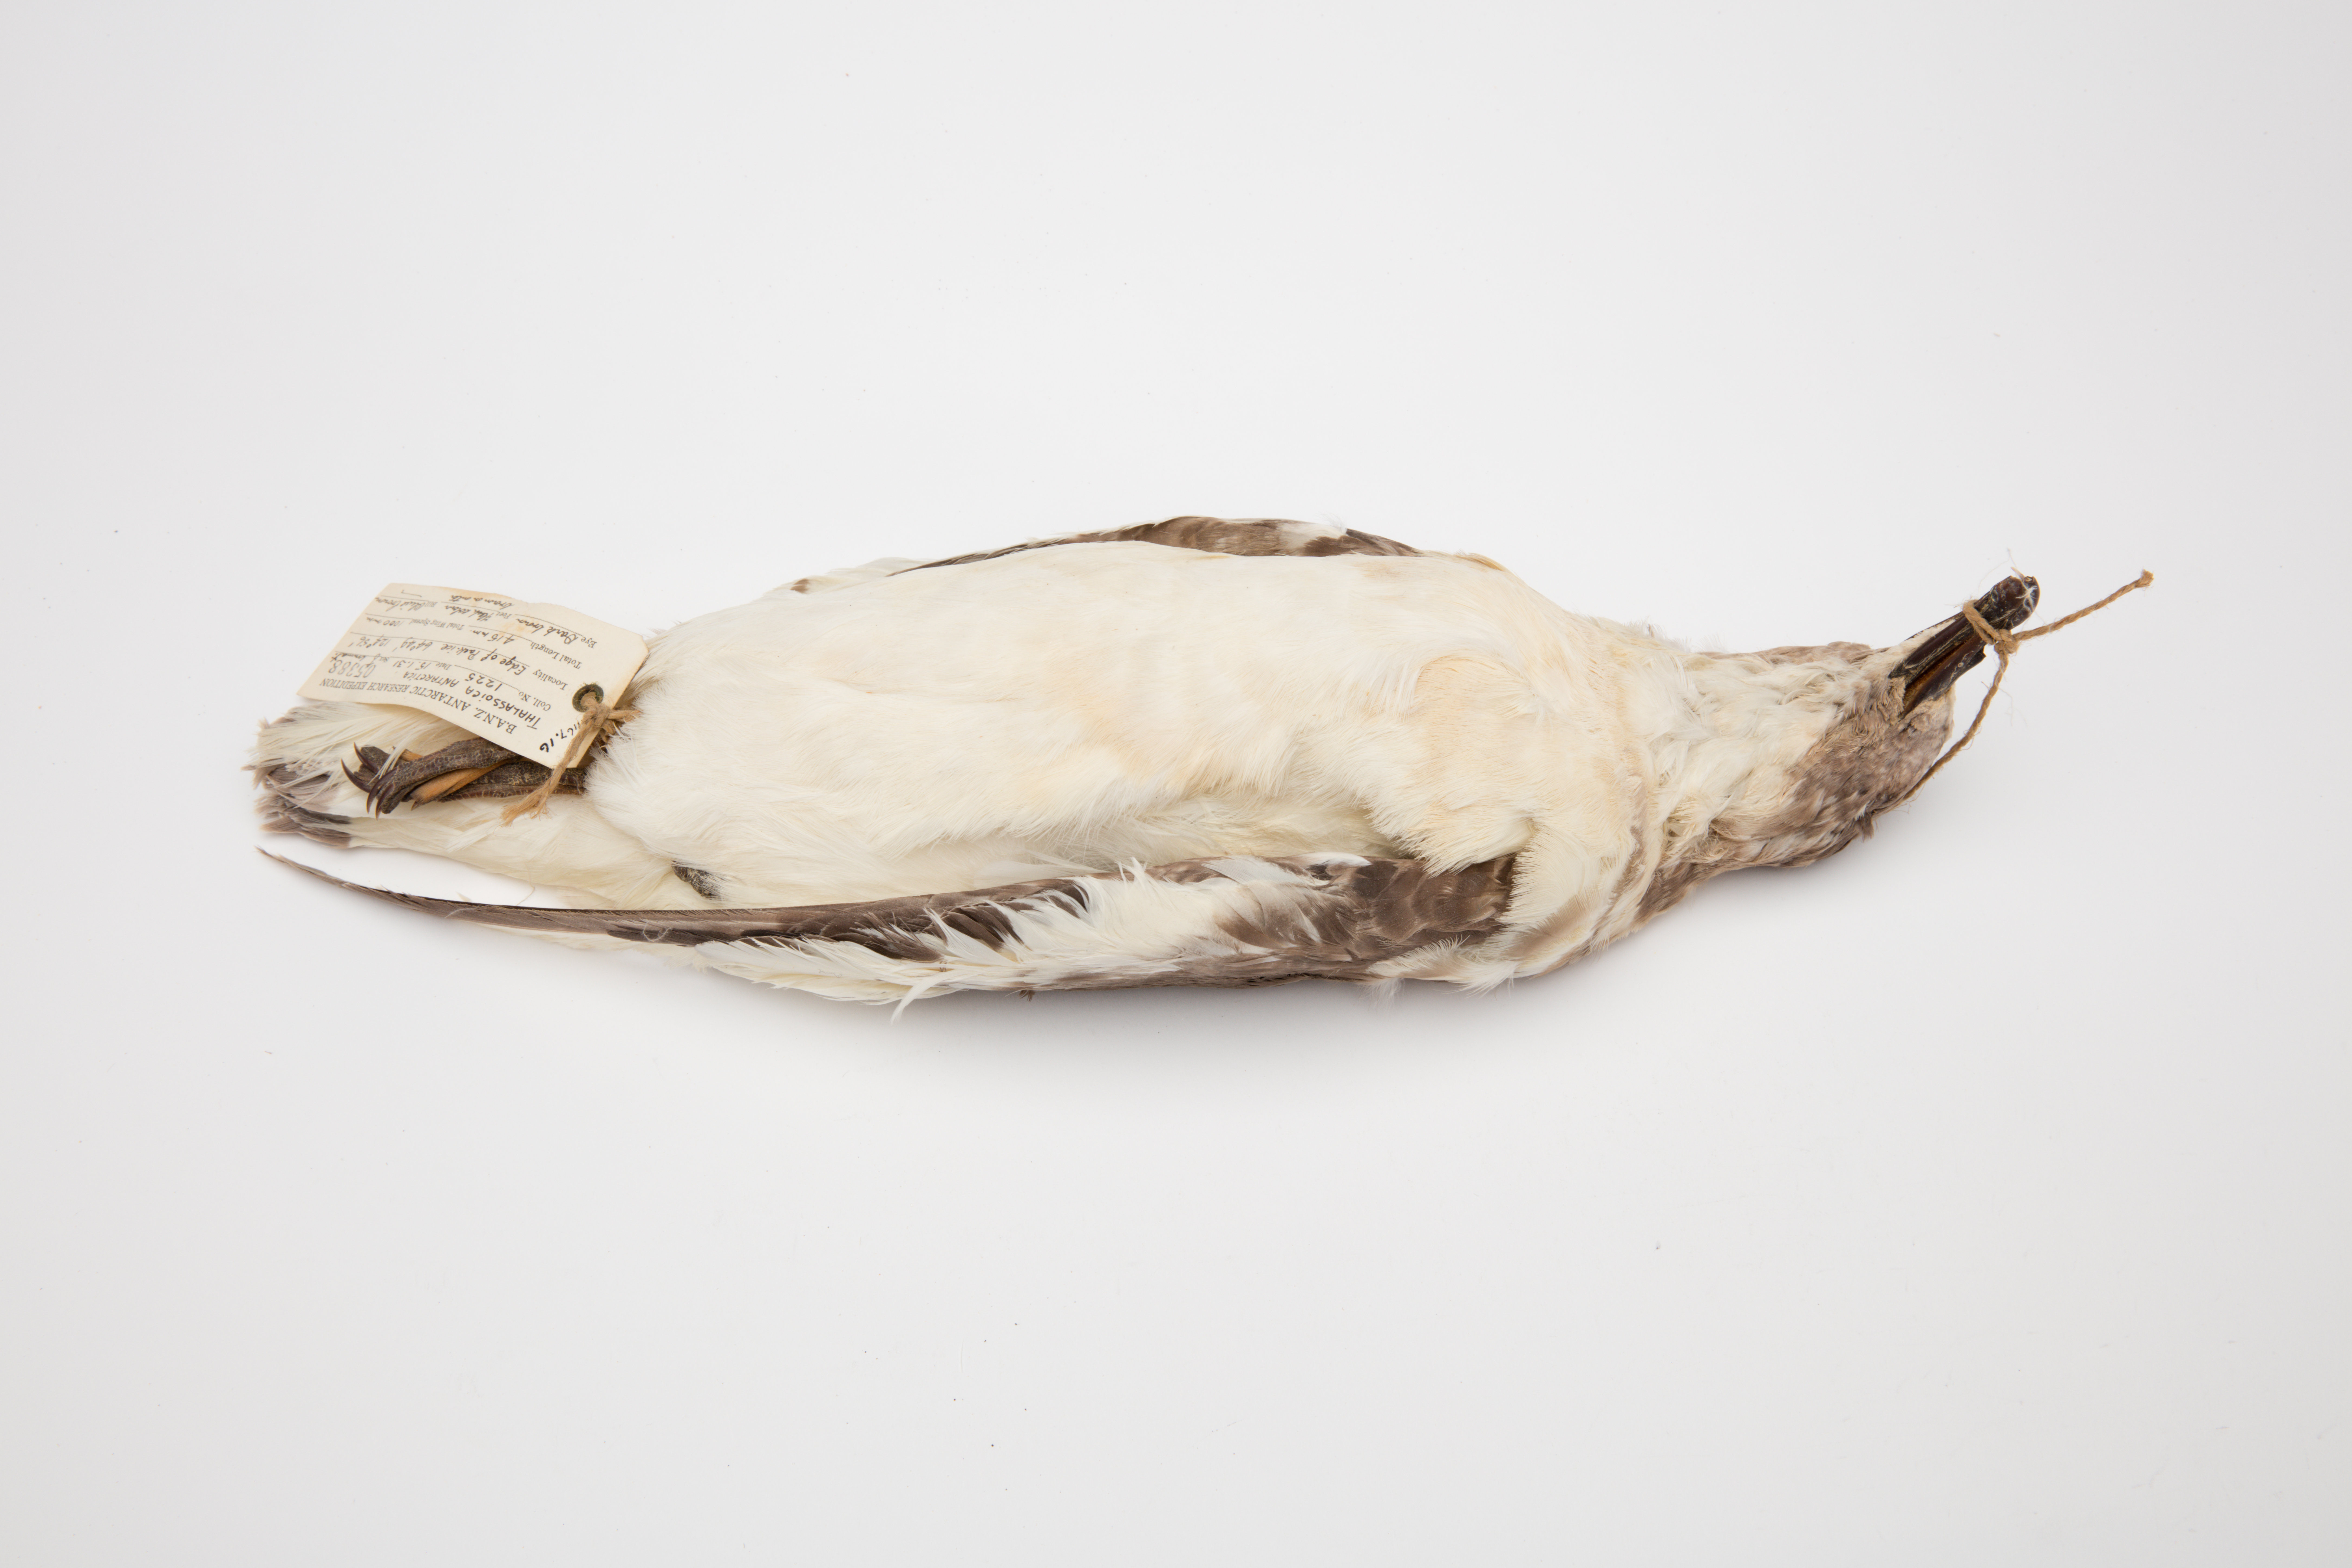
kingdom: Animalia
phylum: Chordata
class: Aves
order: Procellariiformes
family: Procellariidae
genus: Thalassoica
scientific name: Thalassoica antarctica
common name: Antarctic petrel
